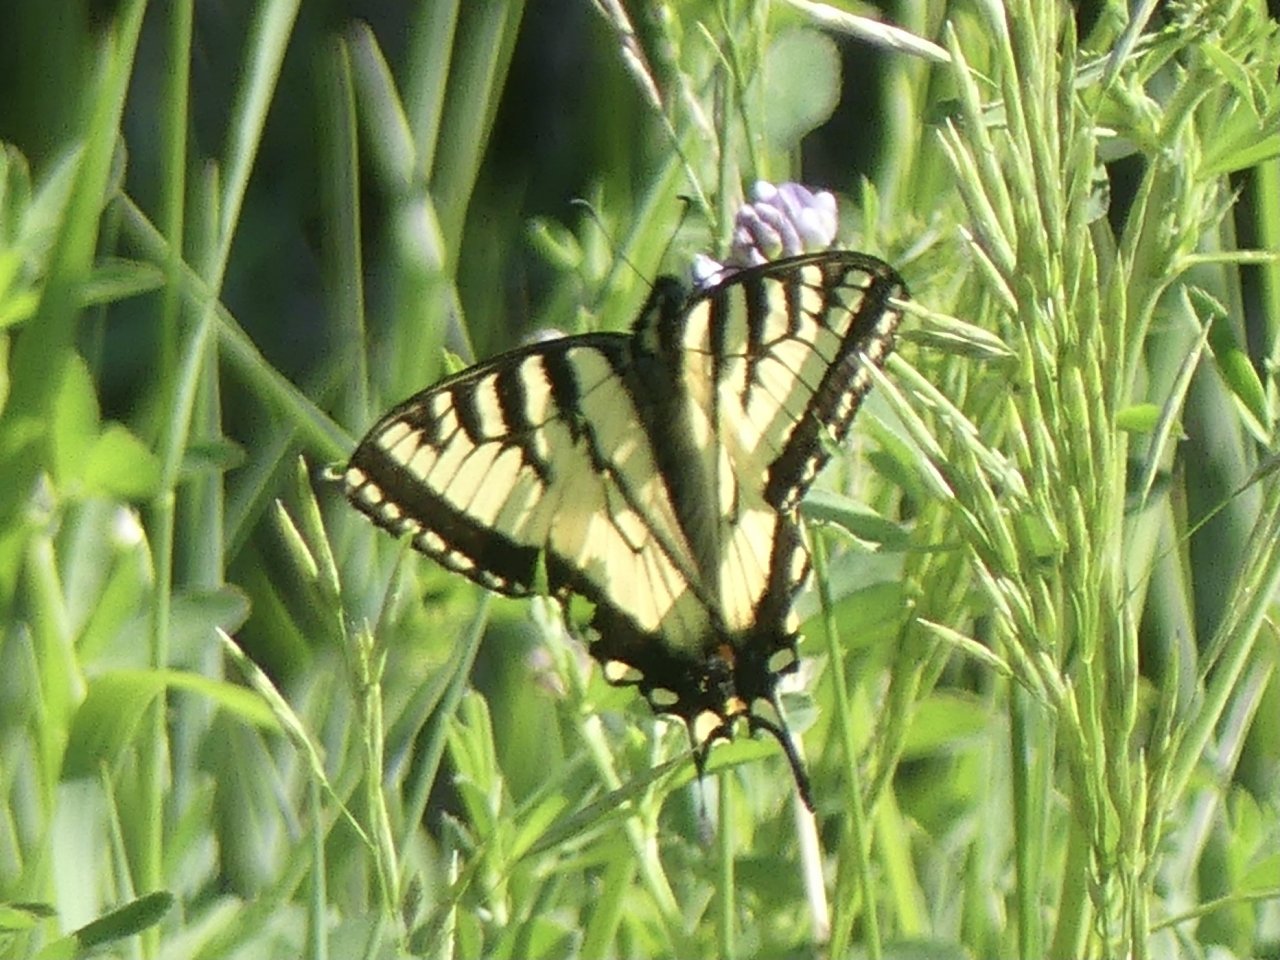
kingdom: Animalia
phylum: Arthropoda
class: Insecta
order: Lepidoptera
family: Papilionidae
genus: Pterourus
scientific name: Pterourus canadensis
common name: Canadian Tiger Swallowtail
